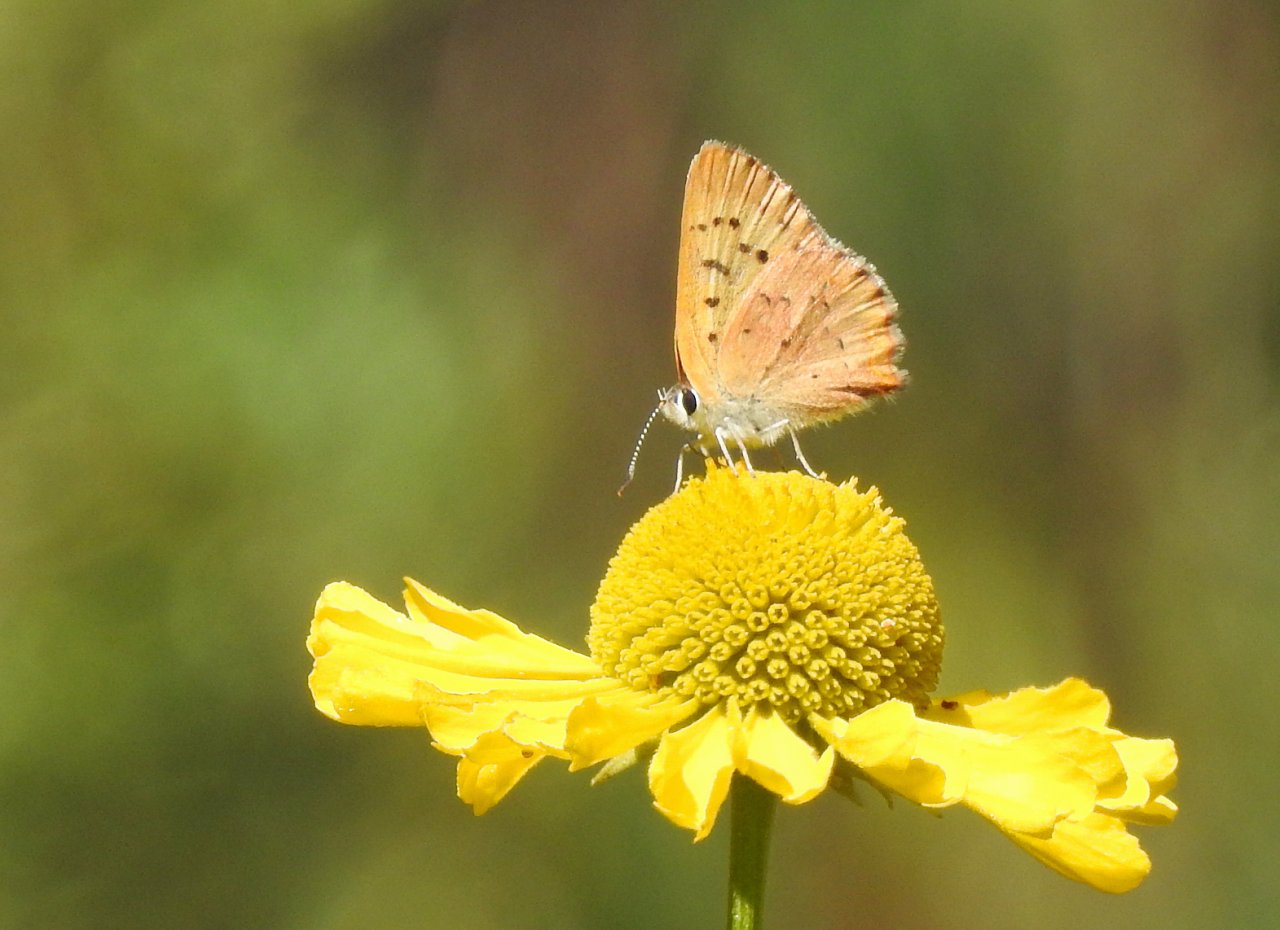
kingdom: Animalia
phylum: Arthropoda
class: Insecta
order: Lepidoptera
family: Lycaenidae
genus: Epidemia
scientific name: Epidemia dorcas
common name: Dorcas Copper
